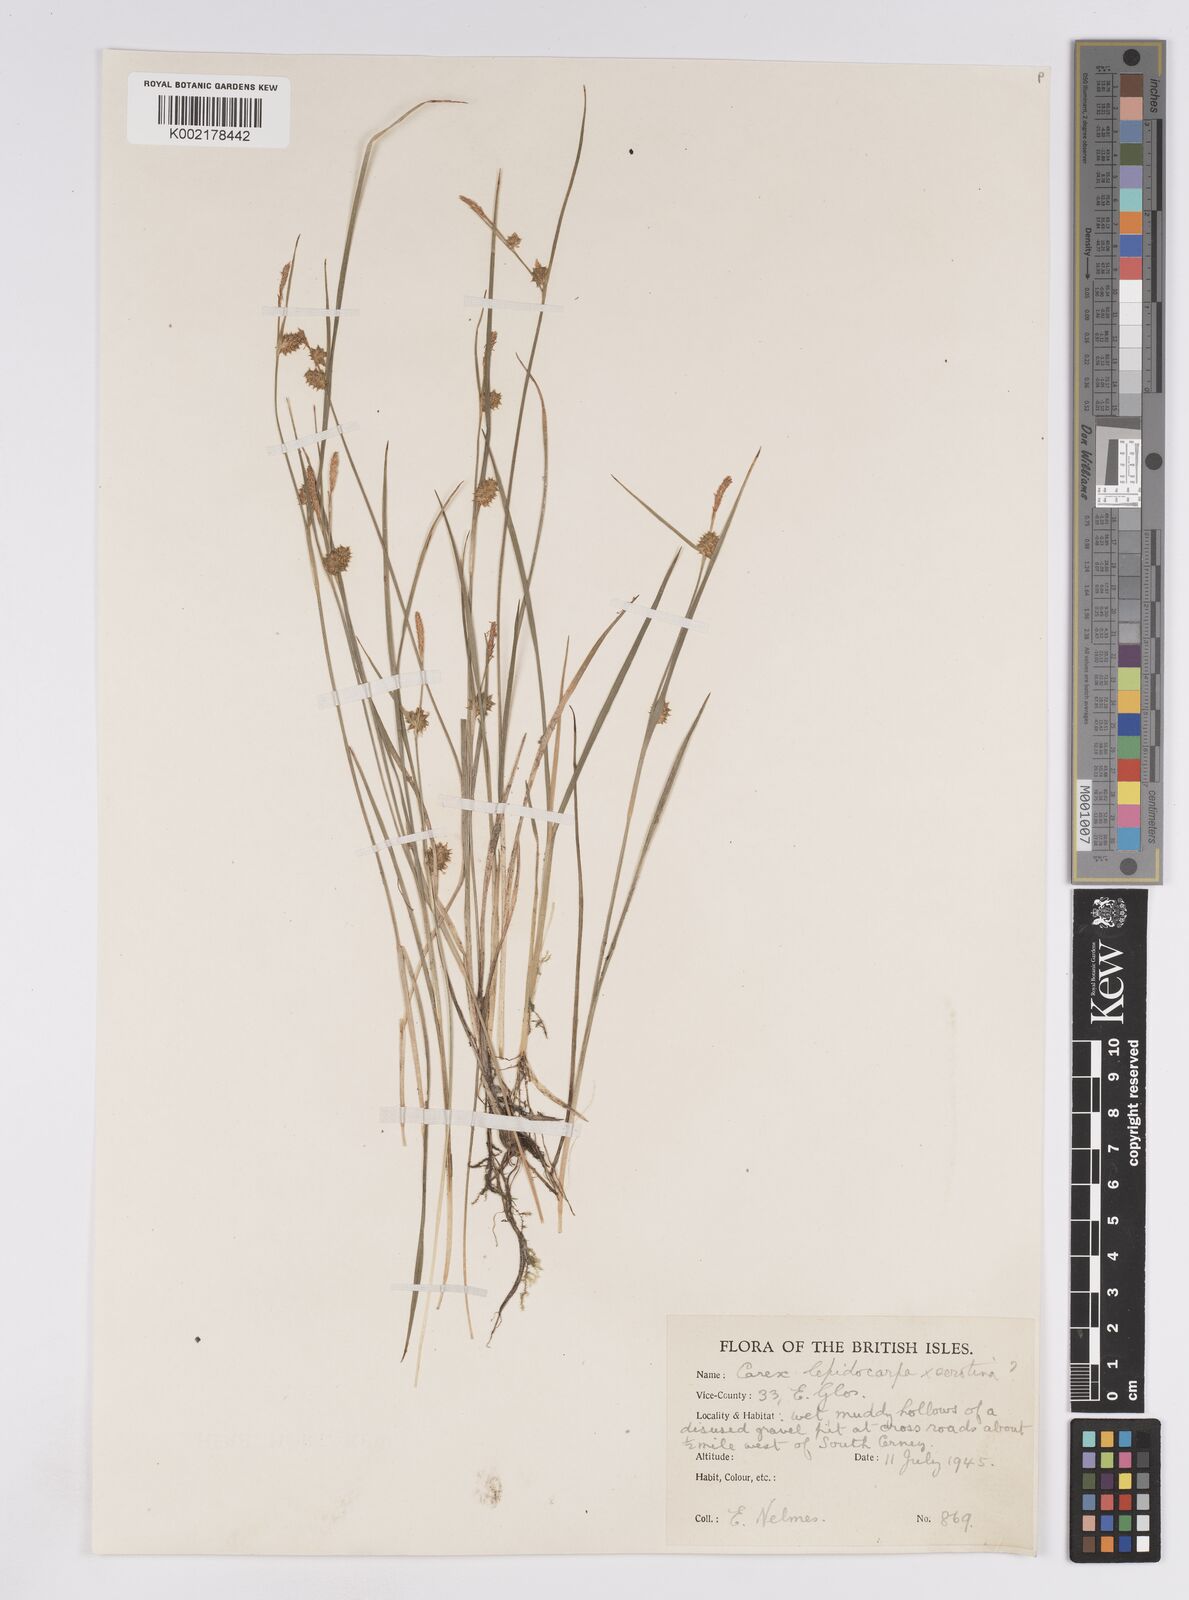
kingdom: Plantae
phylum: Tracheophyta
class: Liliopsida
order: Poales
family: Cyperaceae
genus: Carex
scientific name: Carex lepidocarpa
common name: Long-stalked yellow-sedge
